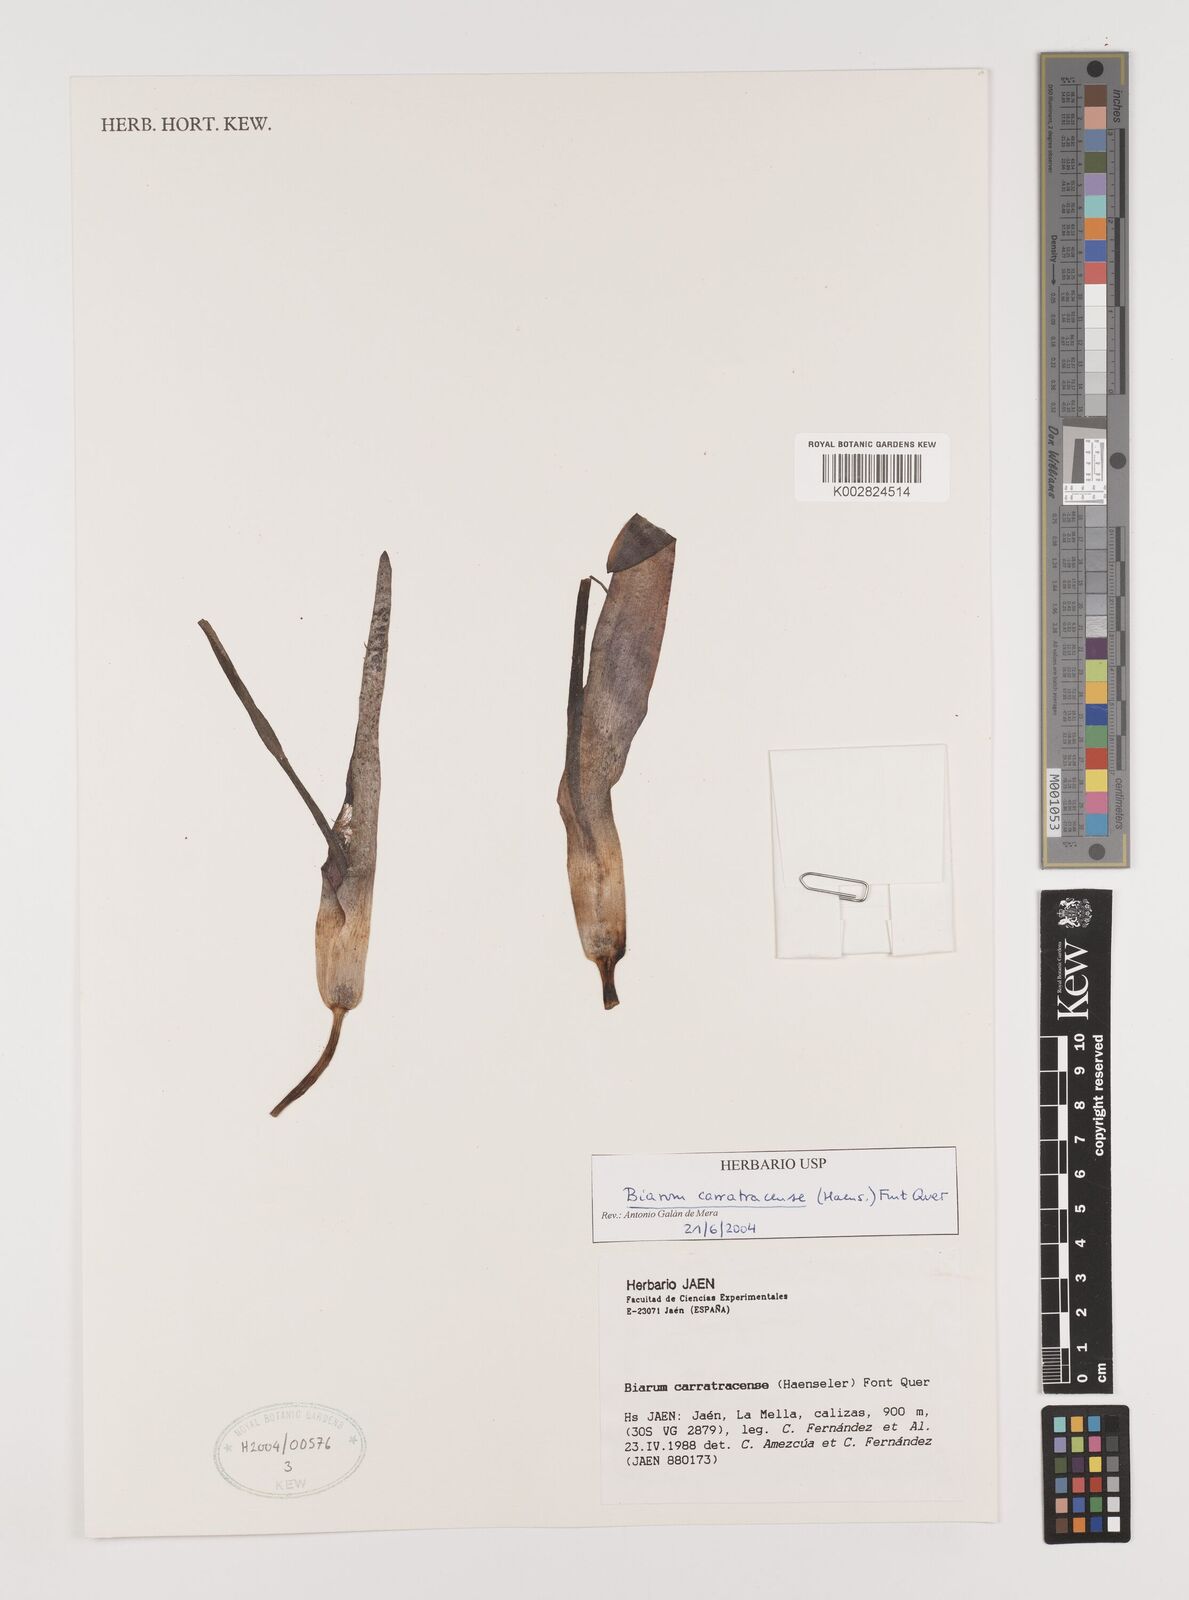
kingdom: Plantae
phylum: Tracheophyta
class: Liliopsida
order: Alismatales
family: Araceae
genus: Biarum
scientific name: Biarum carratracense
